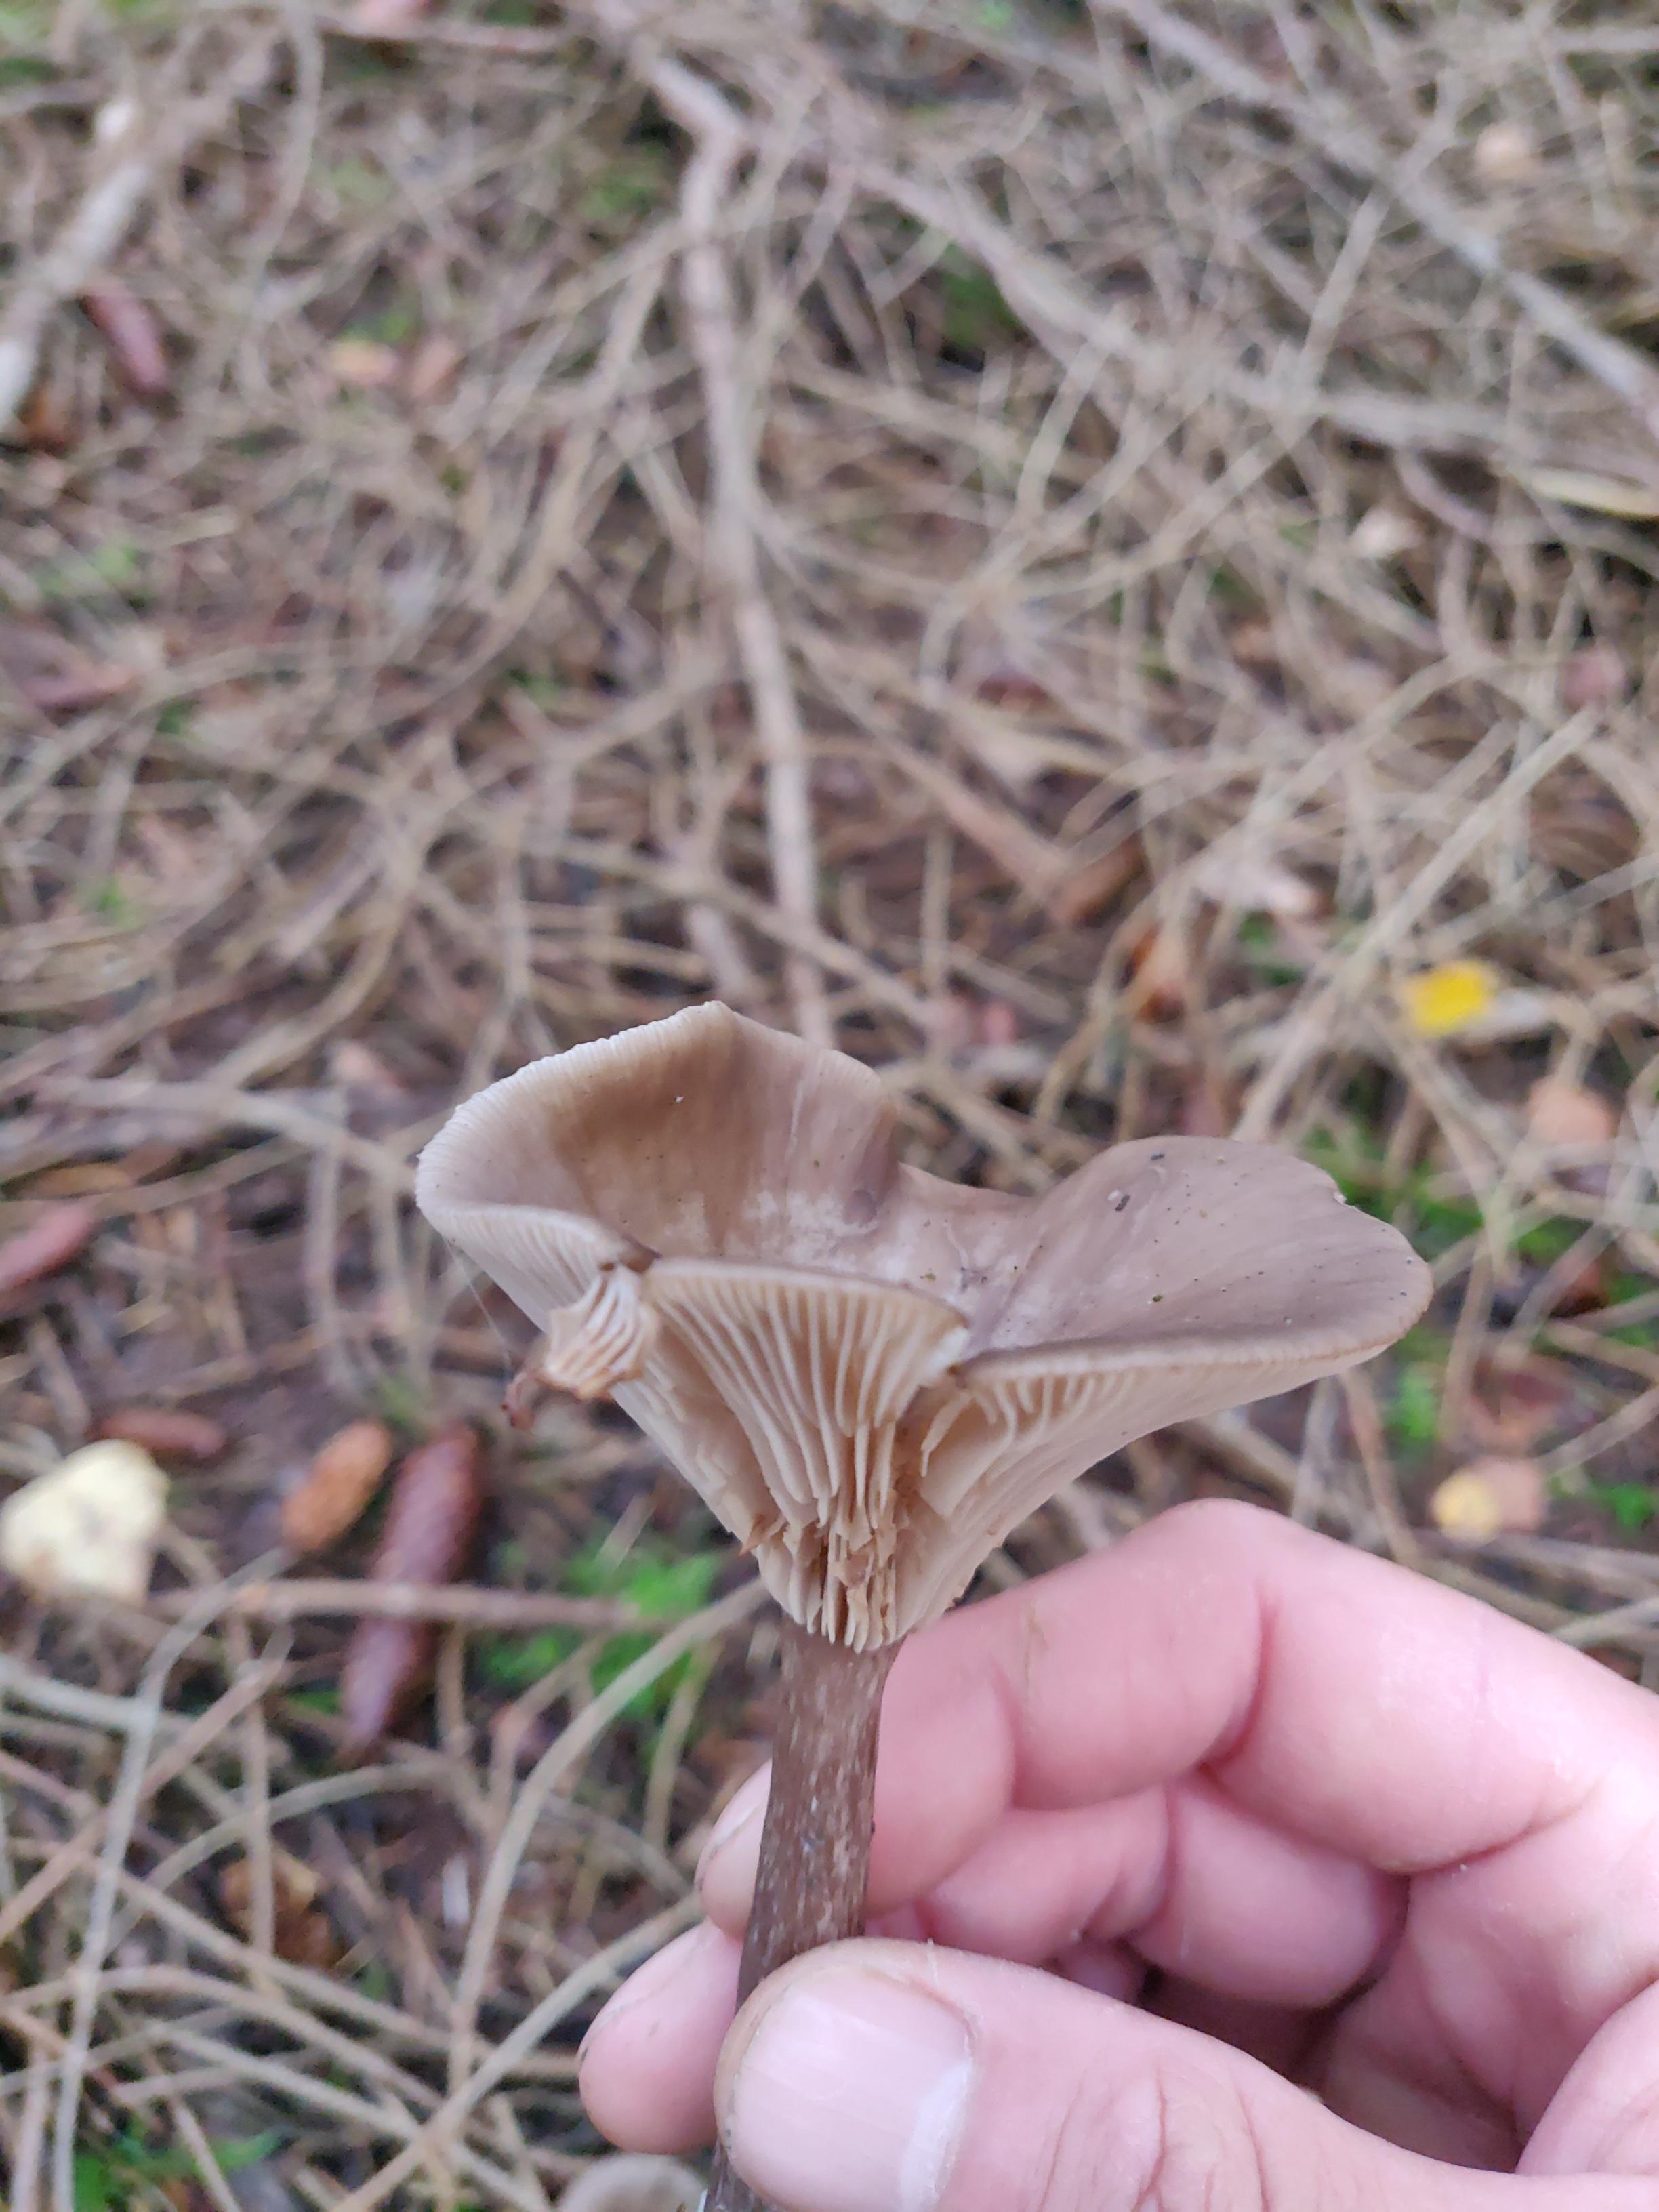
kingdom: Fungi
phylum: Basidiomycota
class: Agaricomycetes
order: Agaricales
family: Pseudoclitocybaceae
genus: Pseudoclitocybe
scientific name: Pseudoclitocybe cyathiformis
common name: almindelig bægertragthat
